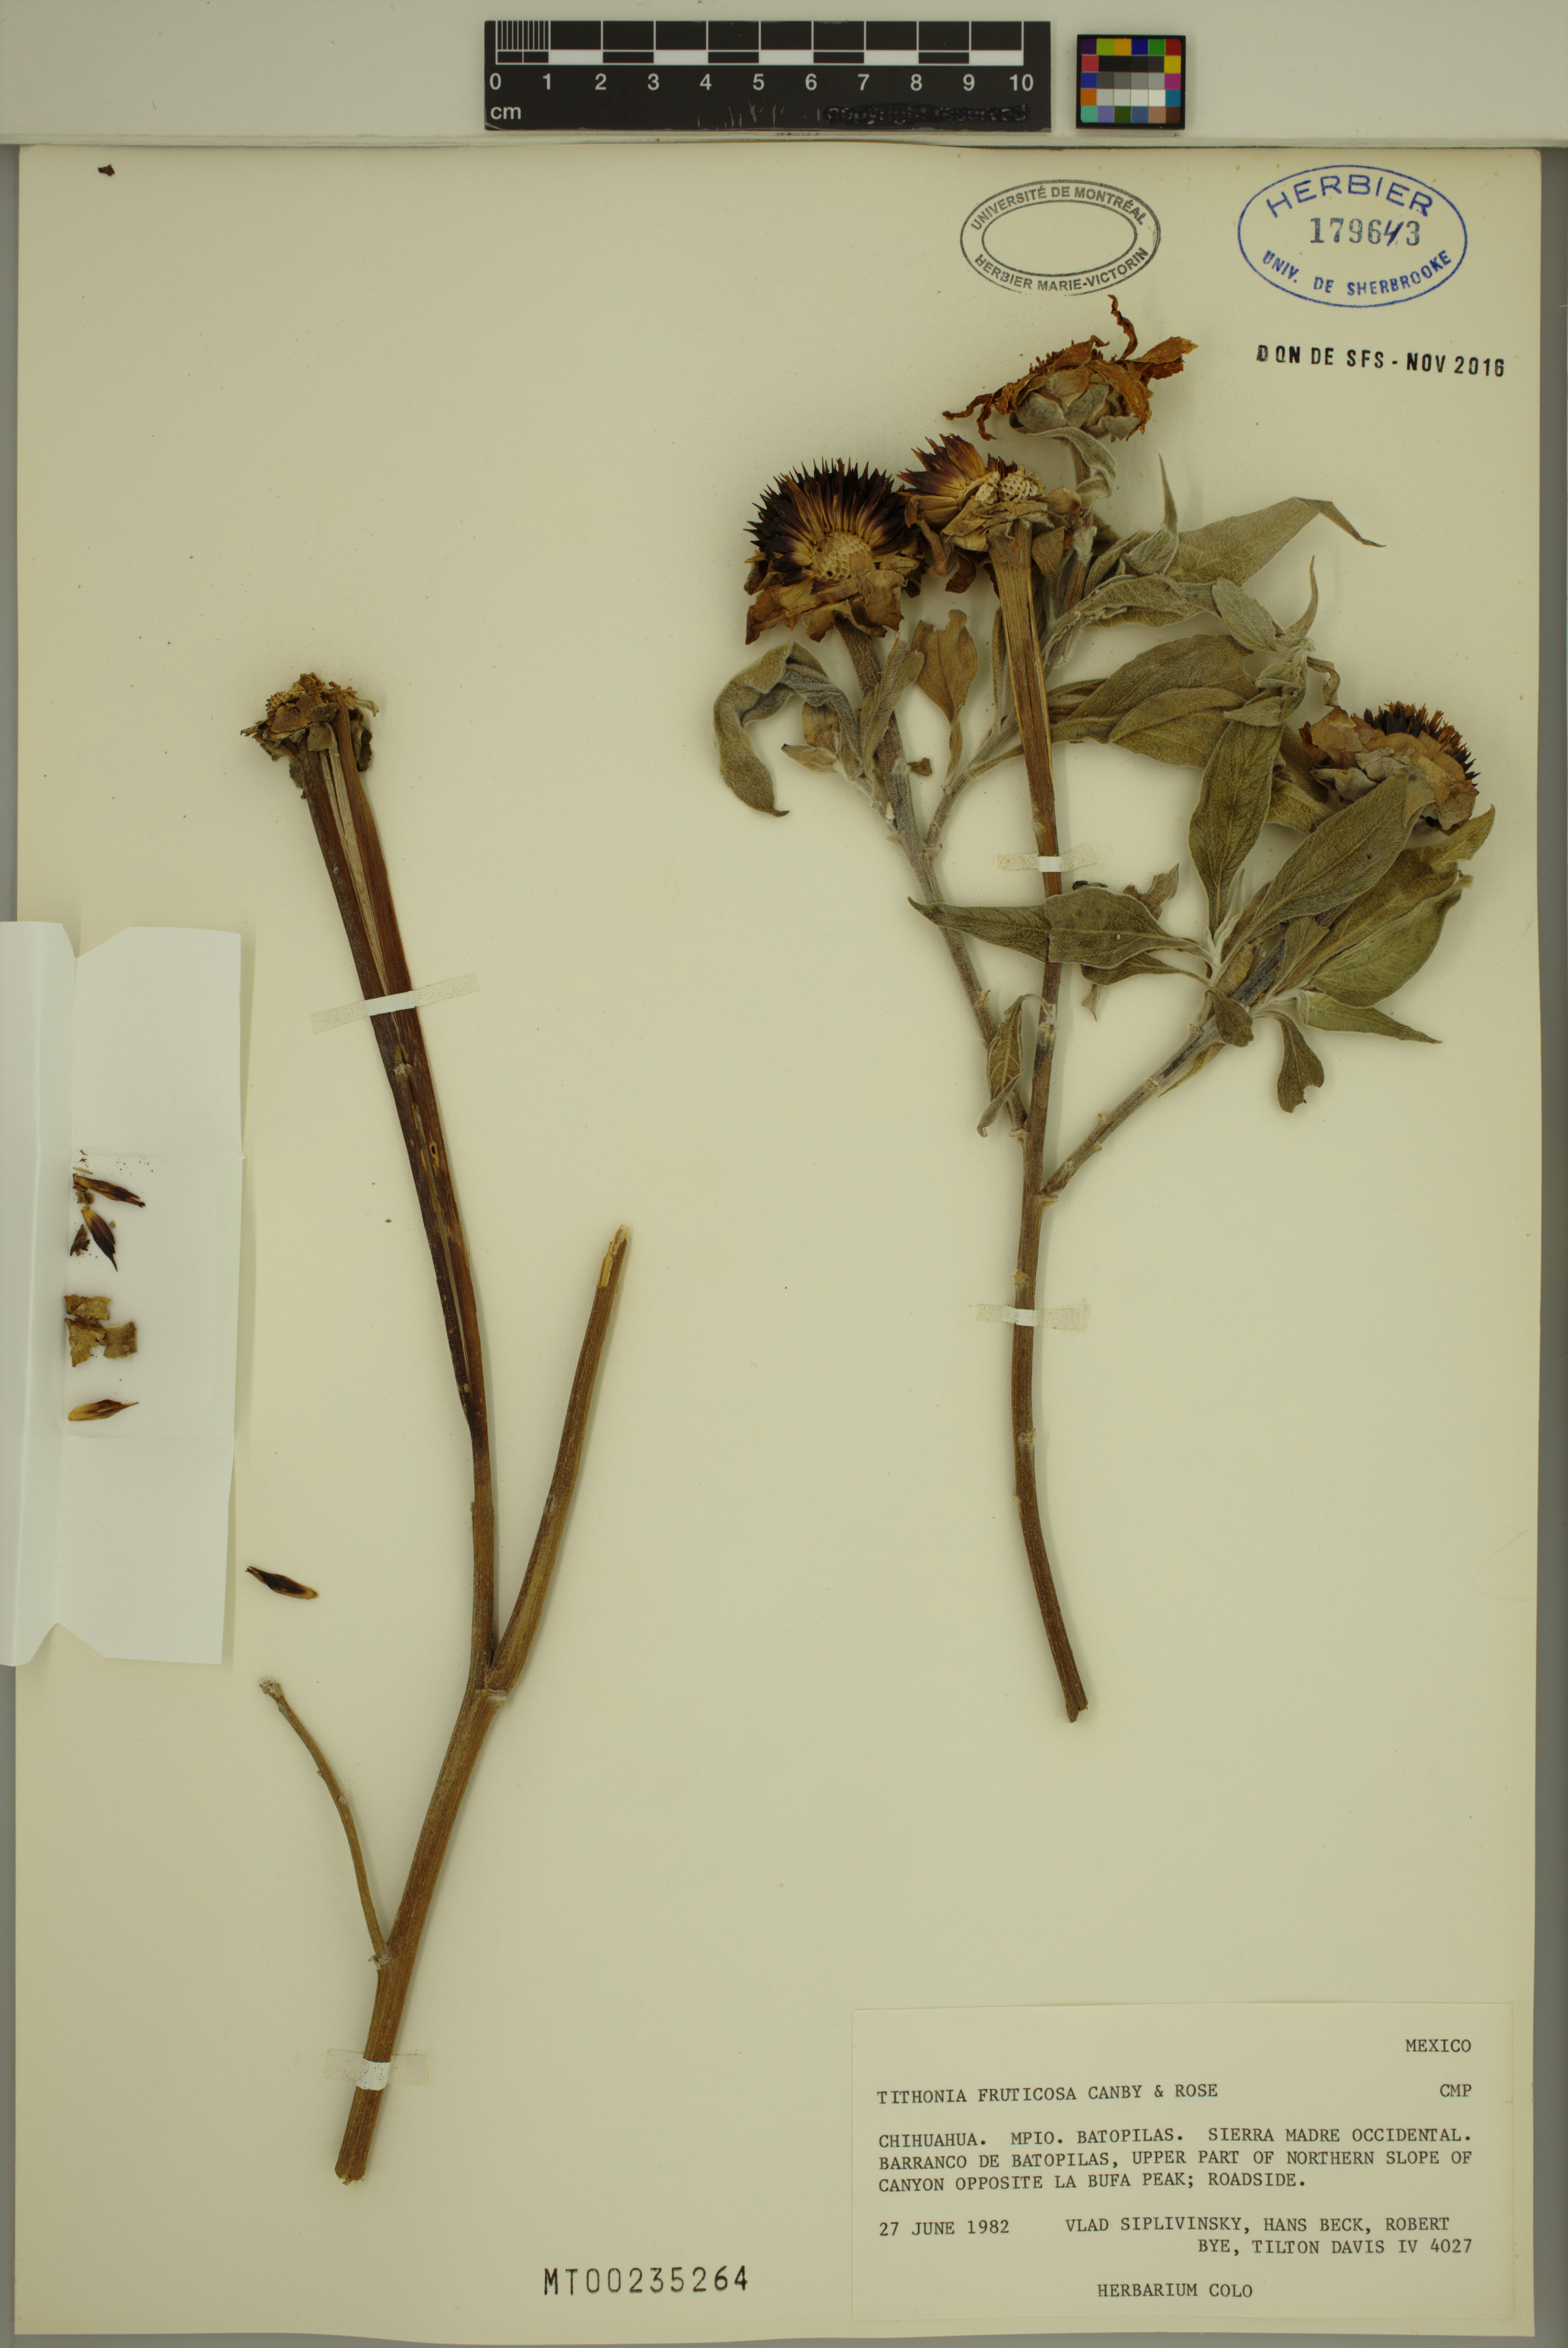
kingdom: Plantae
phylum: Tracheophyta
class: Magnoliopsida
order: Asterales
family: Asteraceae
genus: Tithonia
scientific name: Tithonia fruticosa
